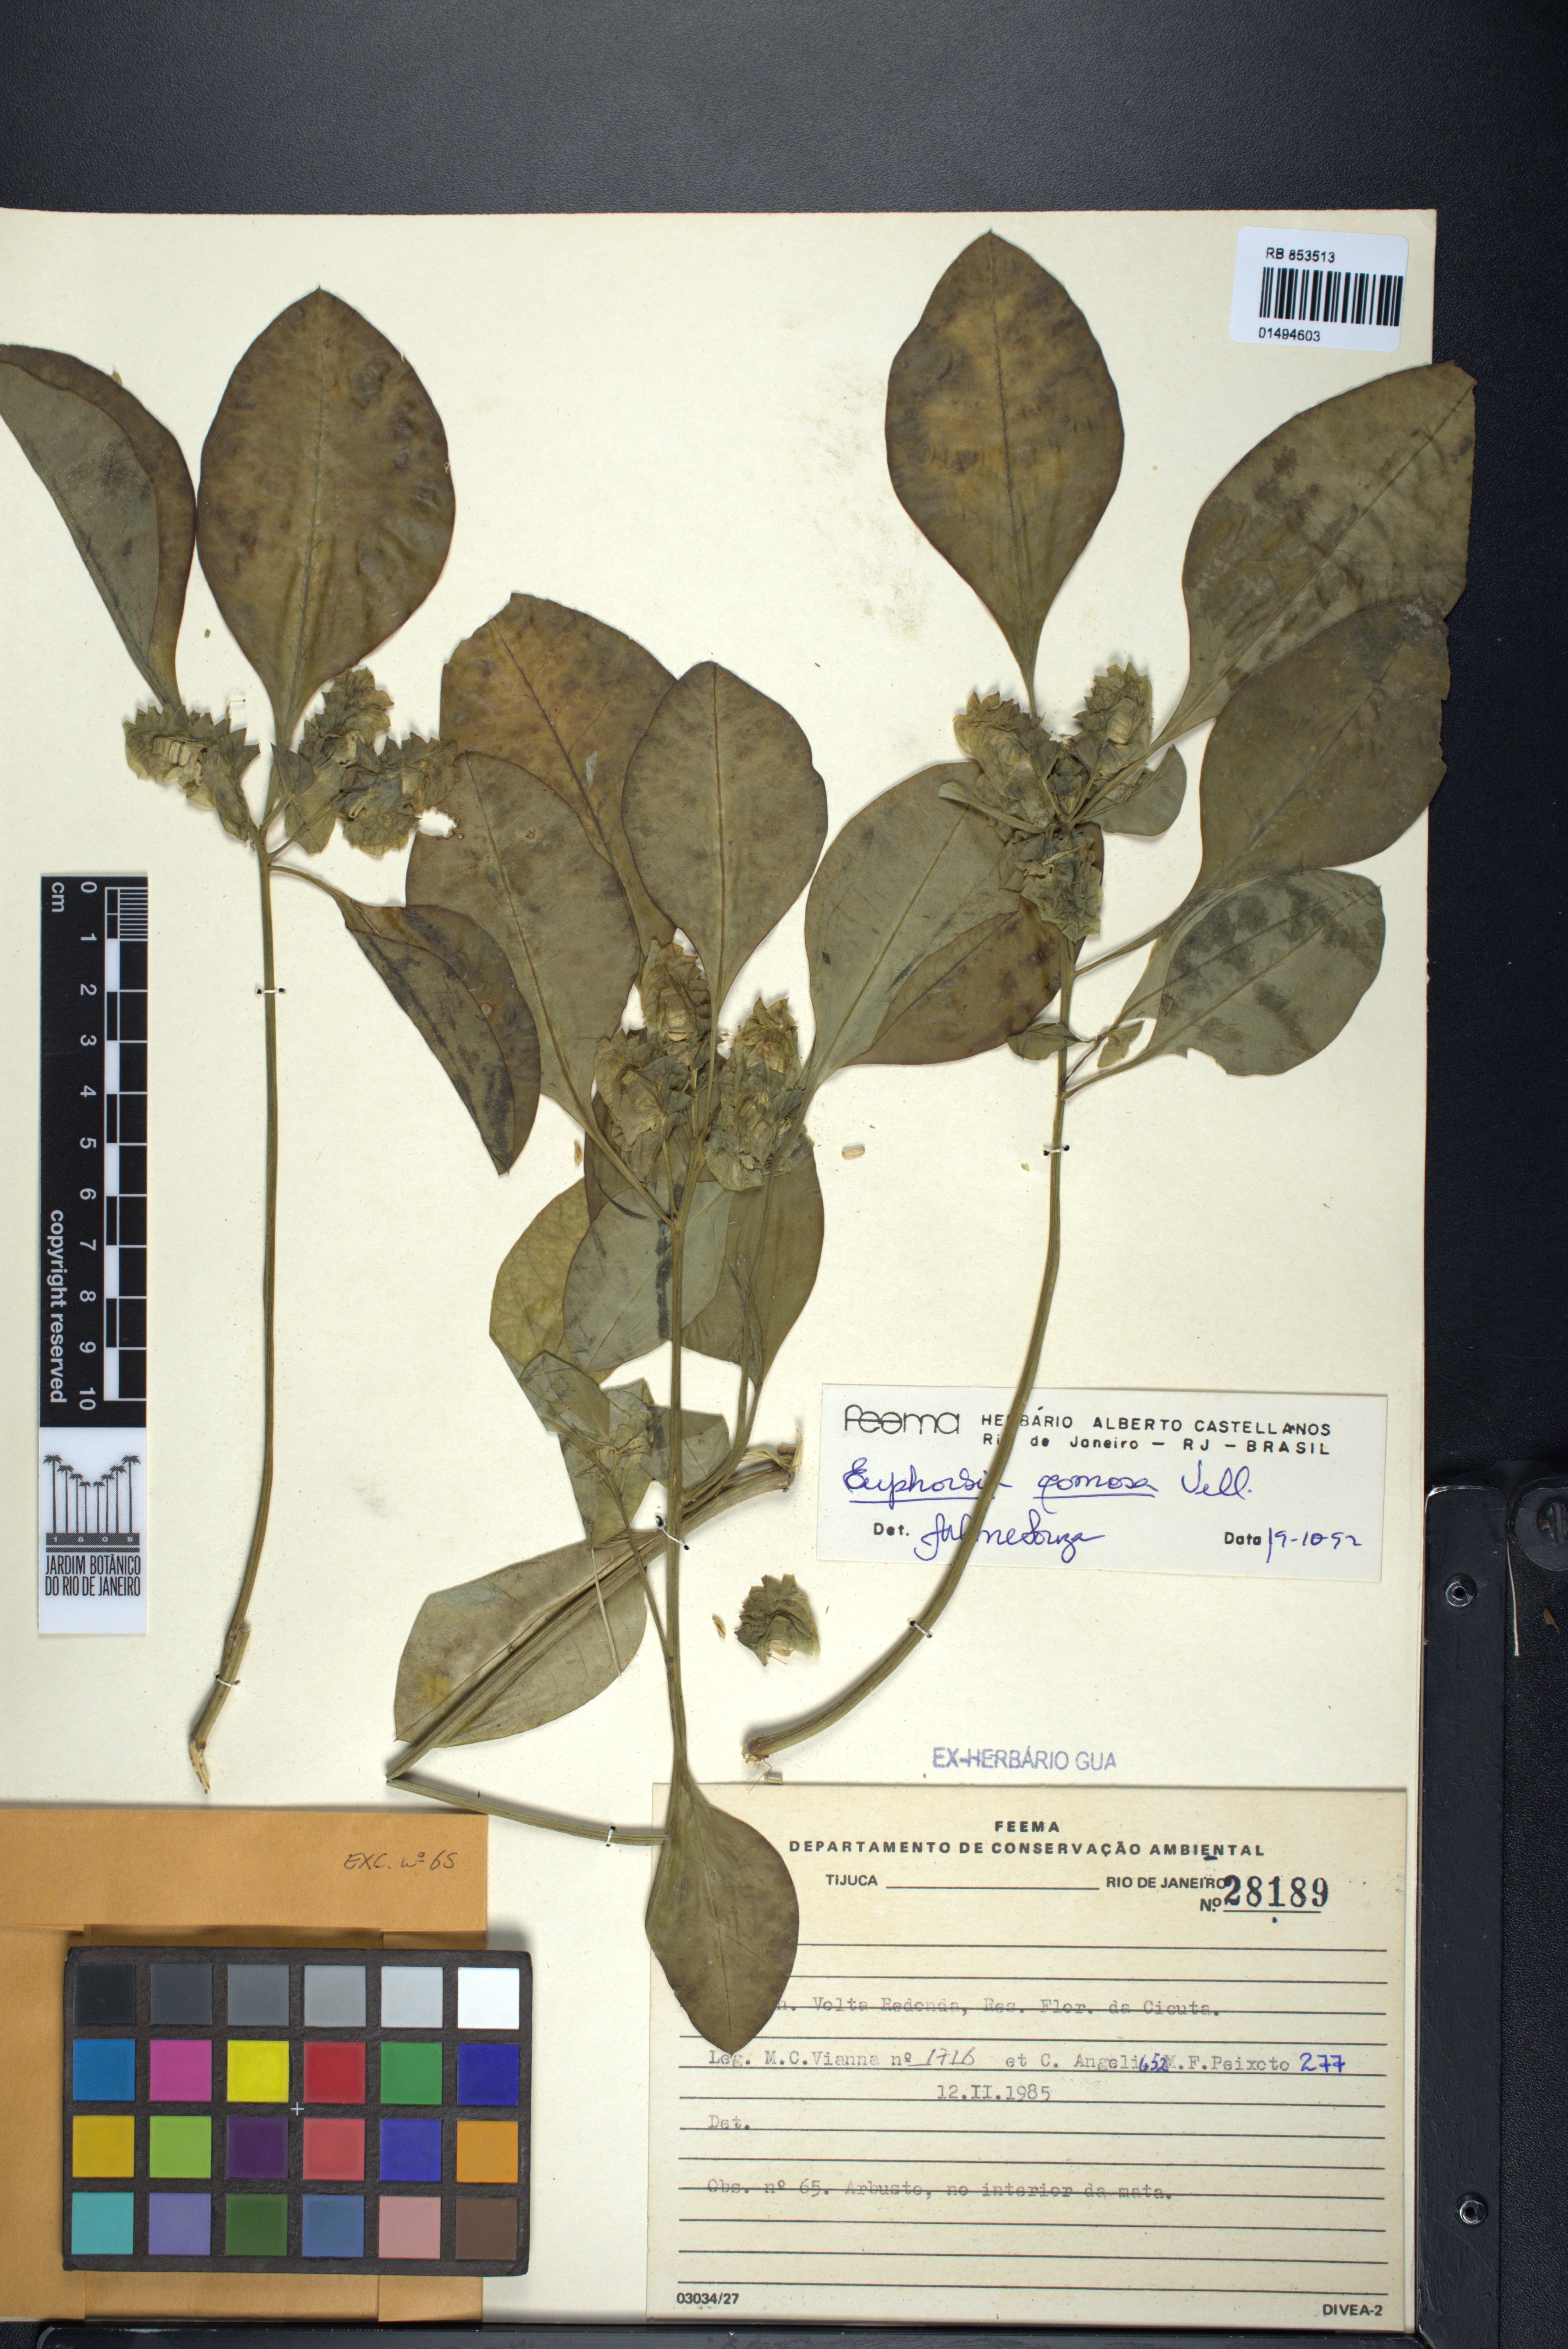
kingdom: Plantae
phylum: Tracheophyta
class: Magnoliopsida
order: Malpighiales
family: Euphorbiaceae
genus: Euphorbia
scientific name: Euphorbia comosa
